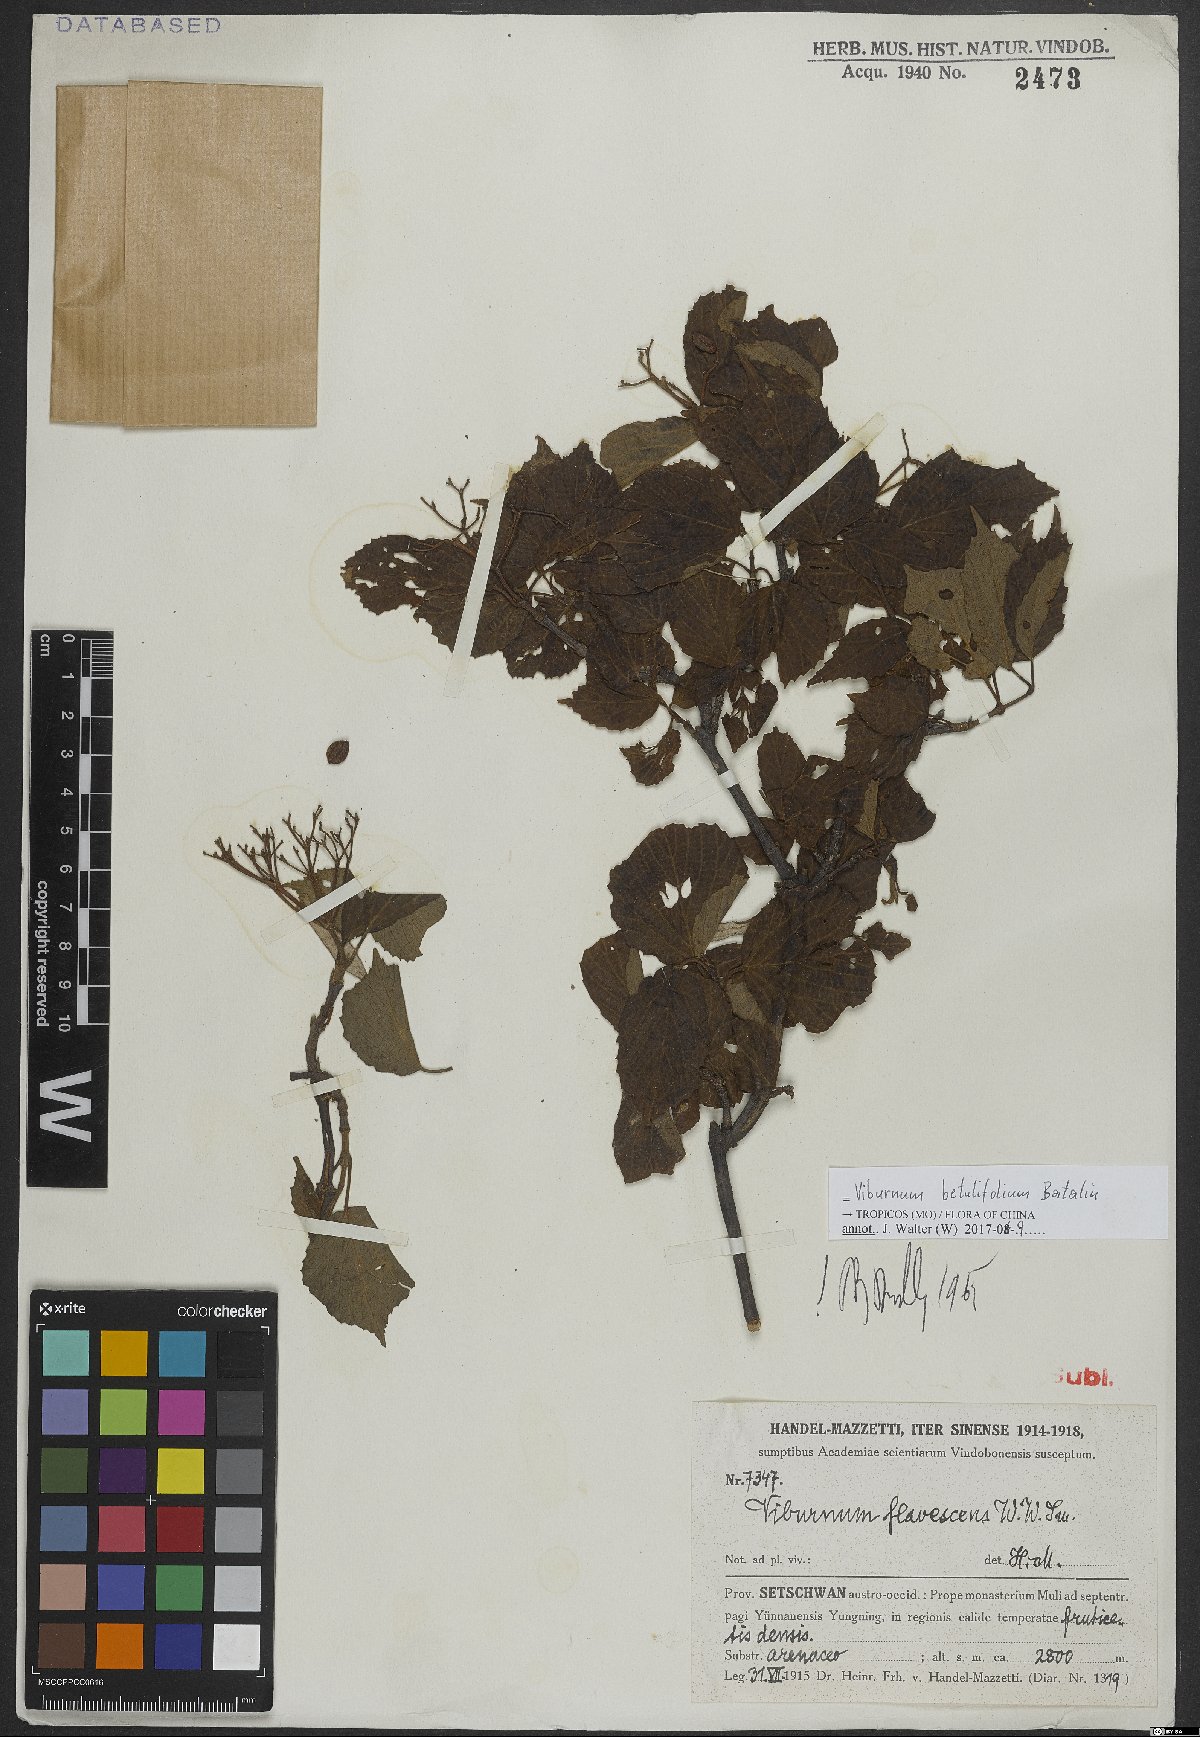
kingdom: Plantae
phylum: Tracheophyta
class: Magnoliopsida
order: Dipsacales
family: Viburnaceae
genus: Viburnum
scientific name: Viburnum betulifolium
